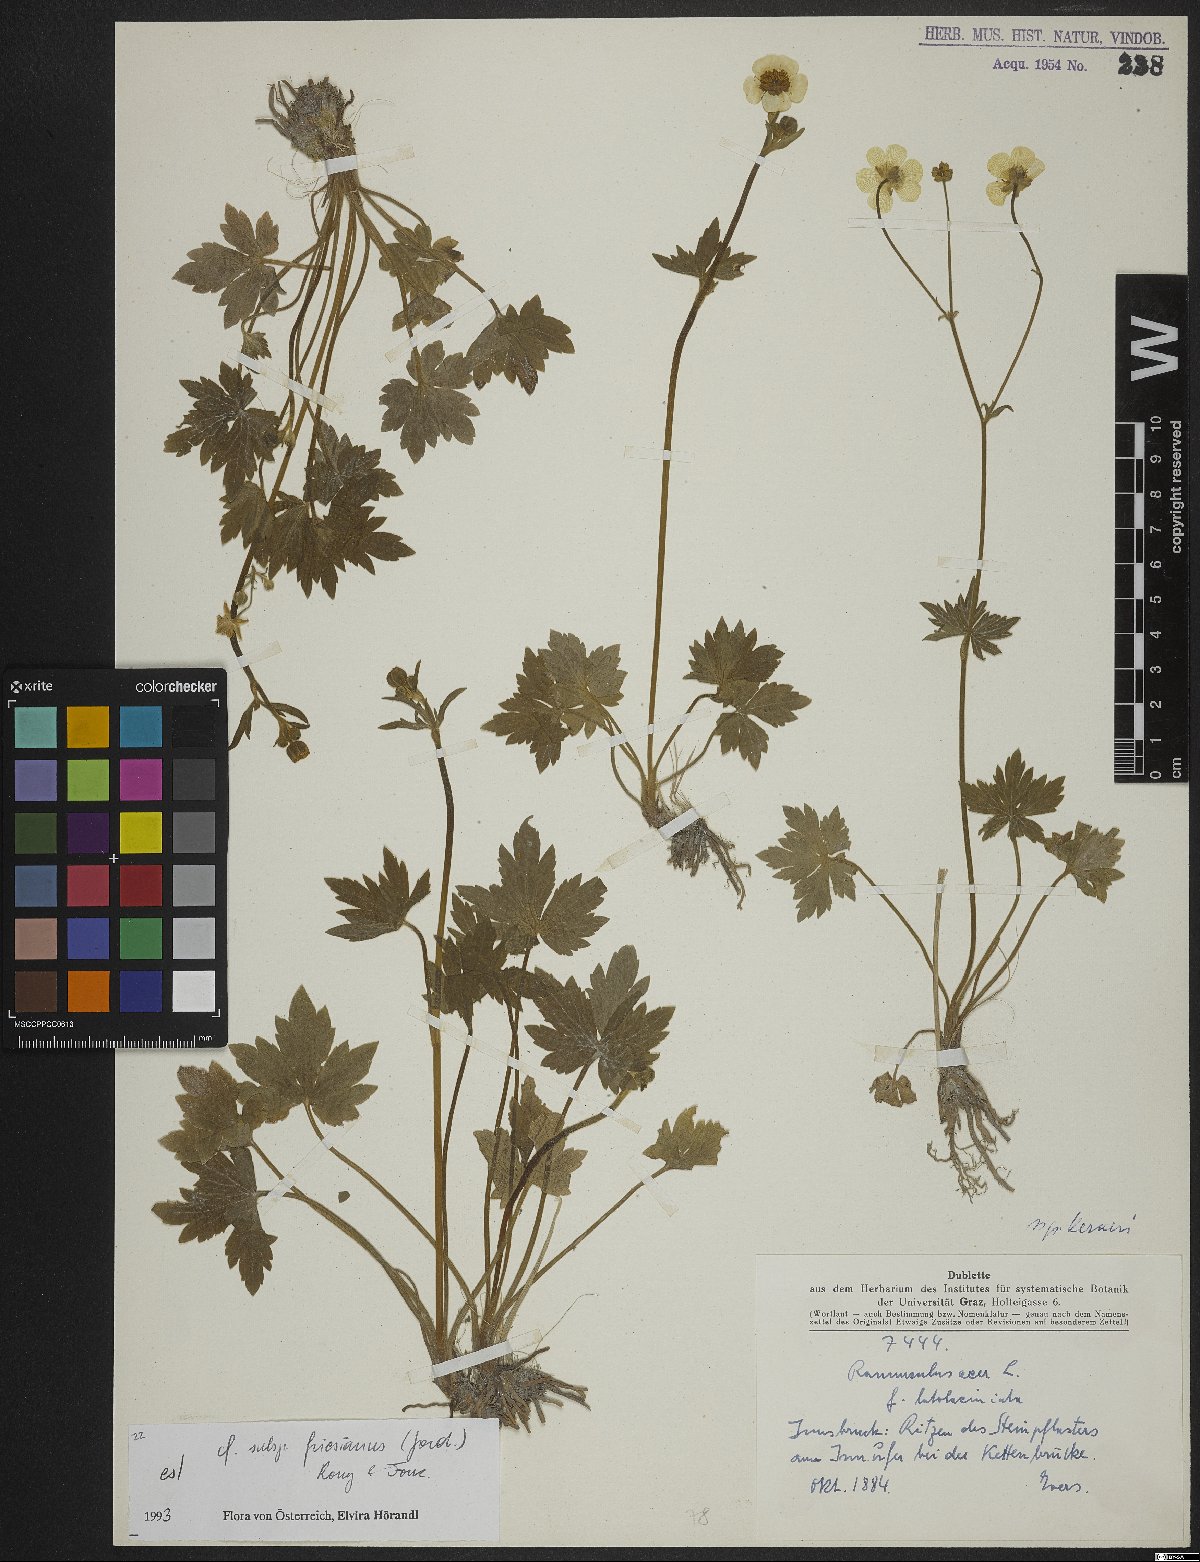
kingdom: Plantae
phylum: Tracheophyta
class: Magnoliopsida
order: Ranunculales
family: Ranunculaceae
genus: Ranunculus
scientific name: Ranunculus acris
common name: Meadow buttercup
